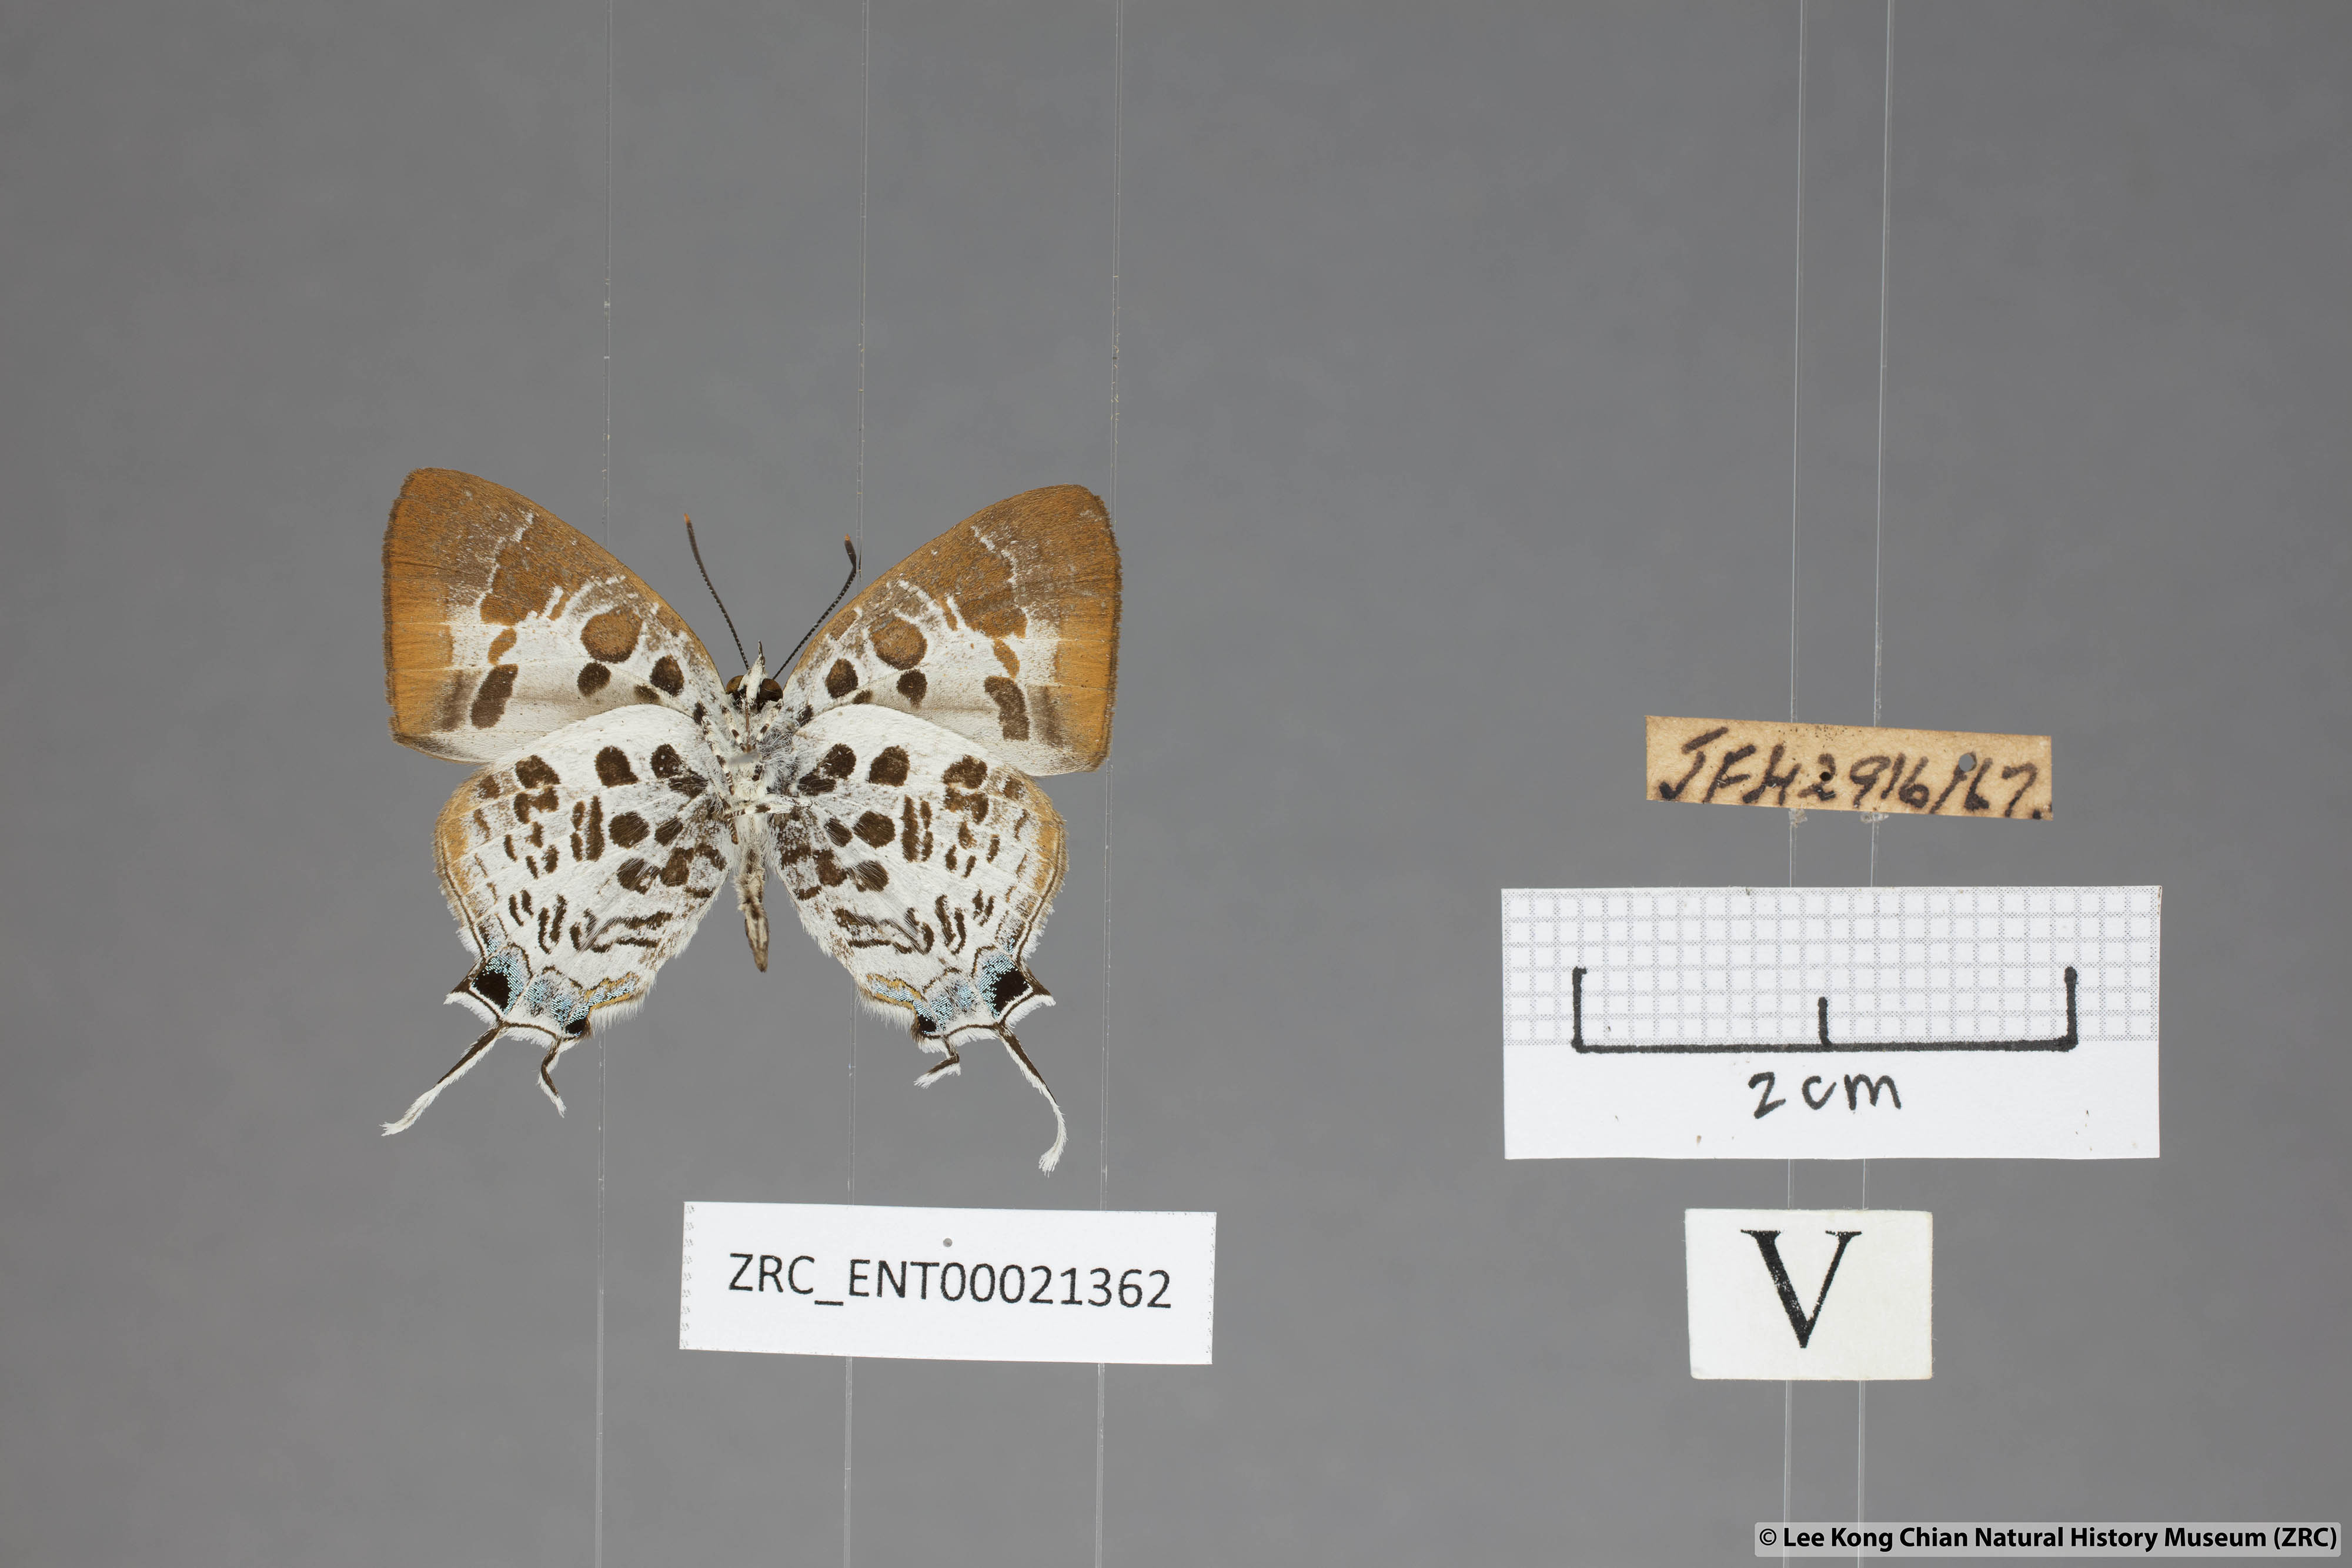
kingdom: Animalia
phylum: Arthropoda
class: Insecta
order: Lepidoptera
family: Lycaenidae
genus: Drupadia
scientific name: Drupadia estella
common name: White-craved posy
